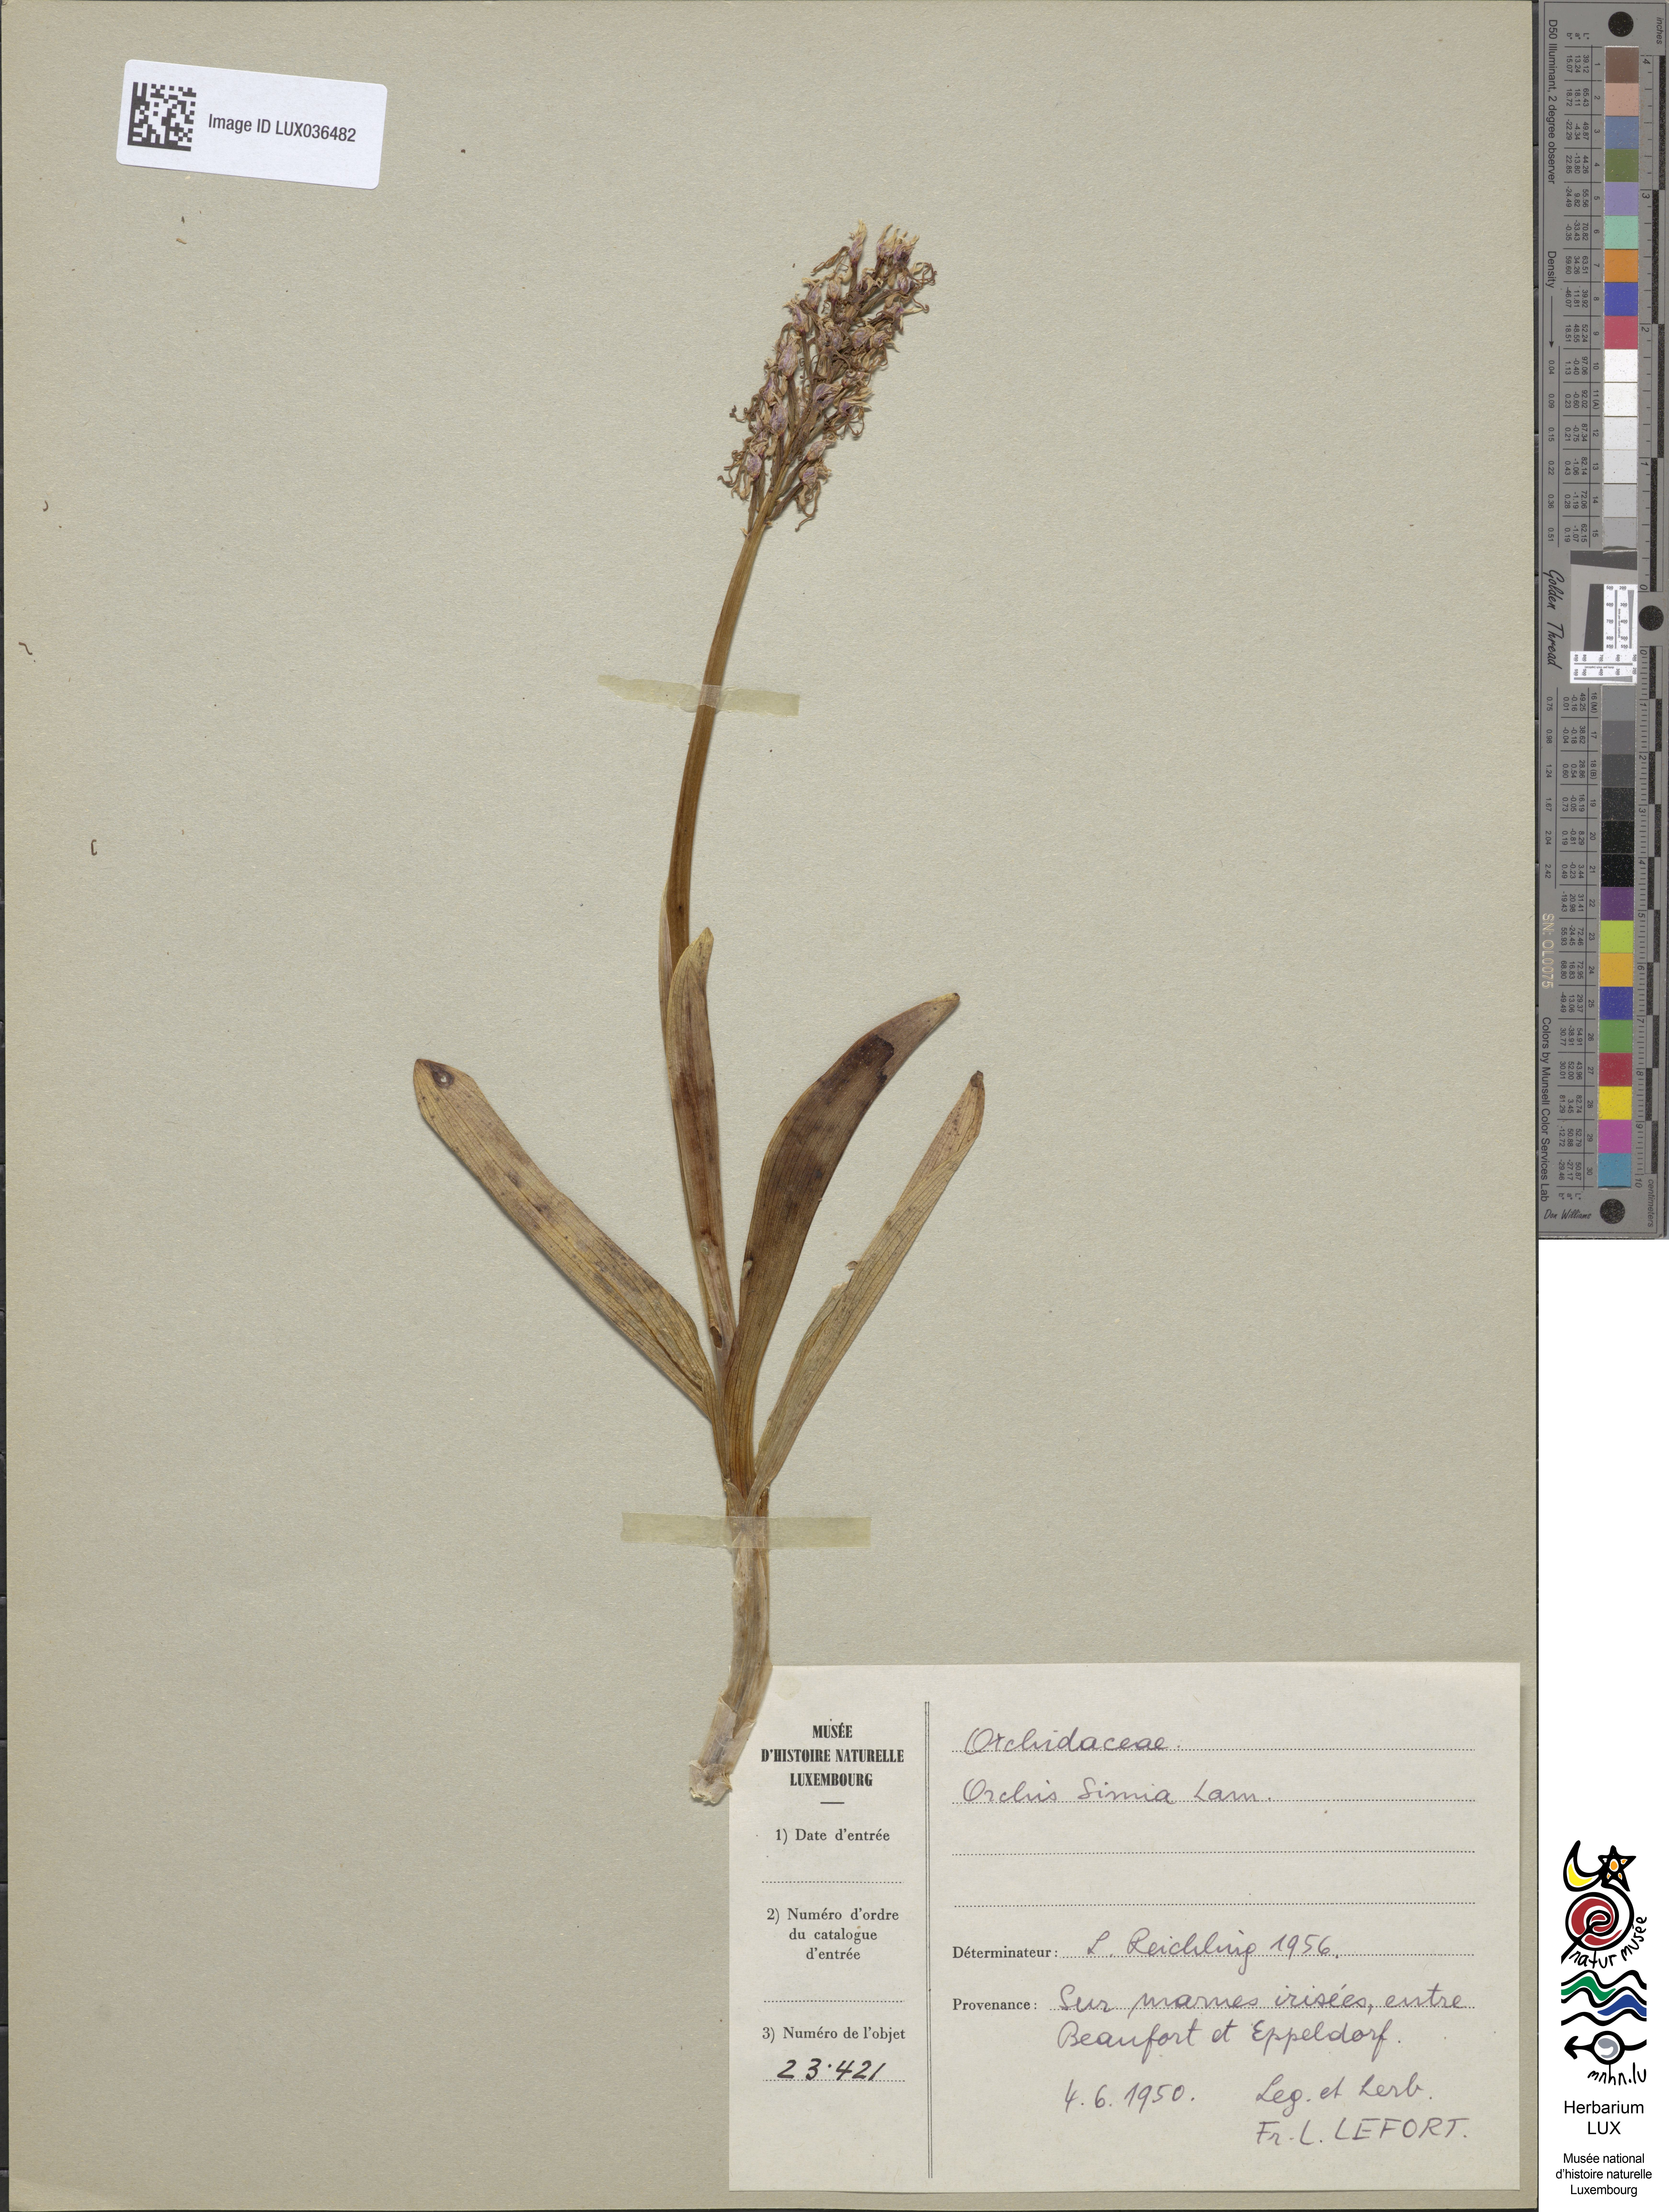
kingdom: Plantae
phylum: Tracheophyta
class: Liliopsida
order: Asparagales
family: Orchidaceae
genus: Orchis
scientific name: Orchis simia
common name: Monkey orchid
